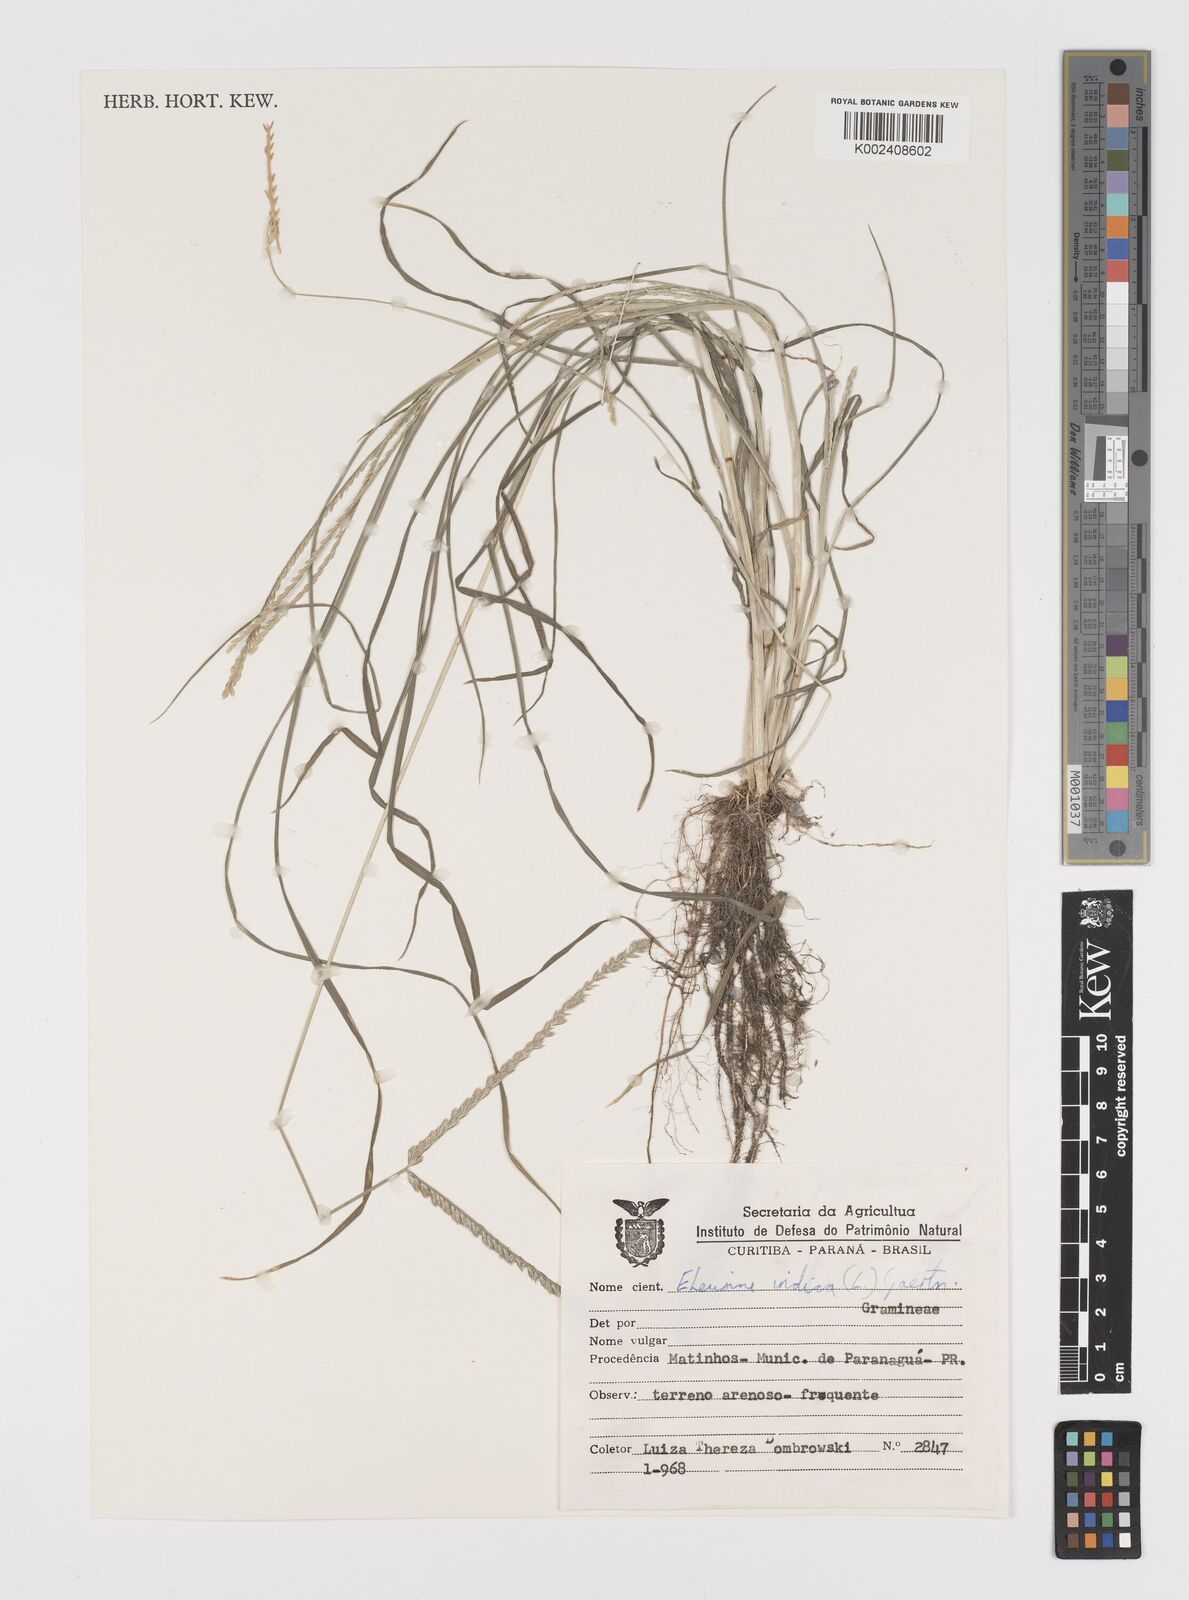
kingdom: Plantae
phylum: Tracheophyta
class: Liliopsida
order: Poales
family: Poaceae
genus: Eleusine
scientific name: Eleusine indica
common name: Yard-grass
